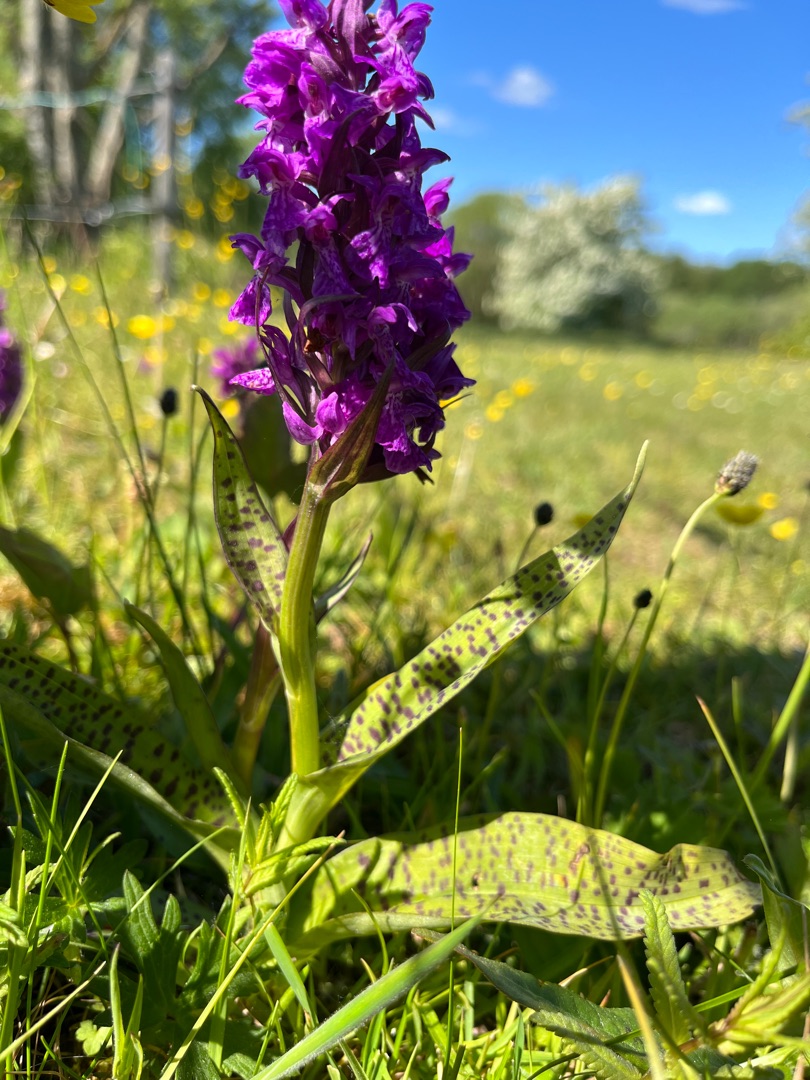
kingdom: Plantae
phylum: Tracheophyta
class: Liliopsida
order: Asparagales
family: Orchidaceae
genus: Dactylorhiza
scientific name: Dactylorhiza majalis
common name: Maj-gøgeurt
